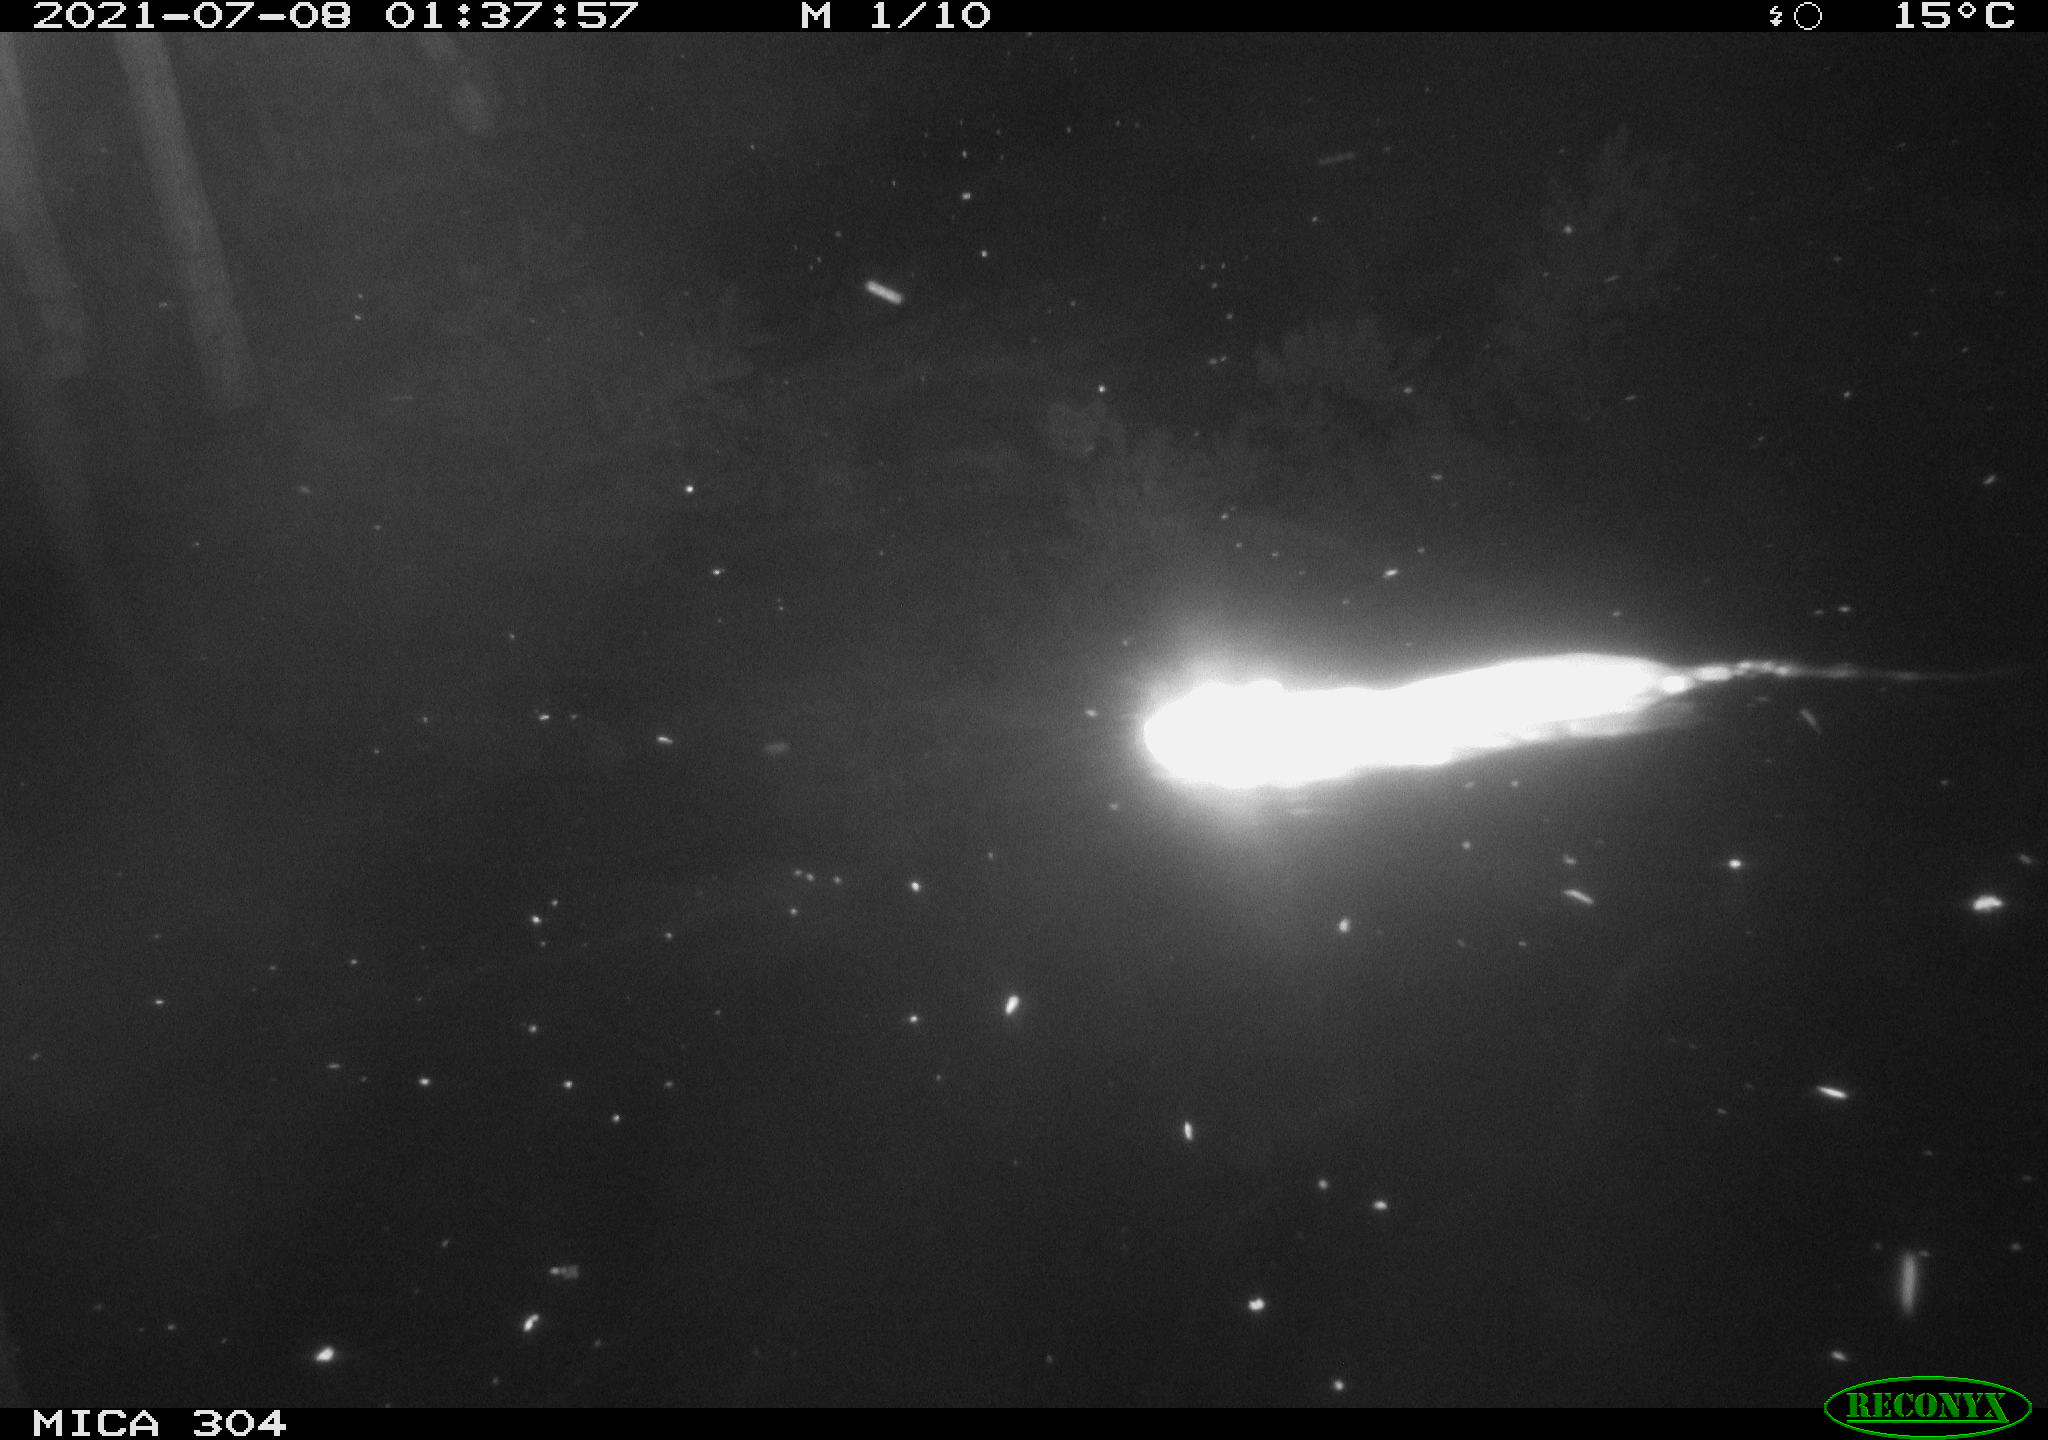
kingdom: Animalia
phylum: Chordata
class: Mammalia
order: Rodentia
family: Muridae
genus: Rattus
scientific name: Rattus norvegicus
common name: Brown rat
